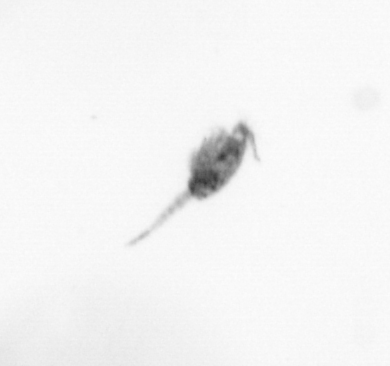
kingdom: Animalia
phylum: Arthropoda
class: Copepoda
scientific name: Copepoda
